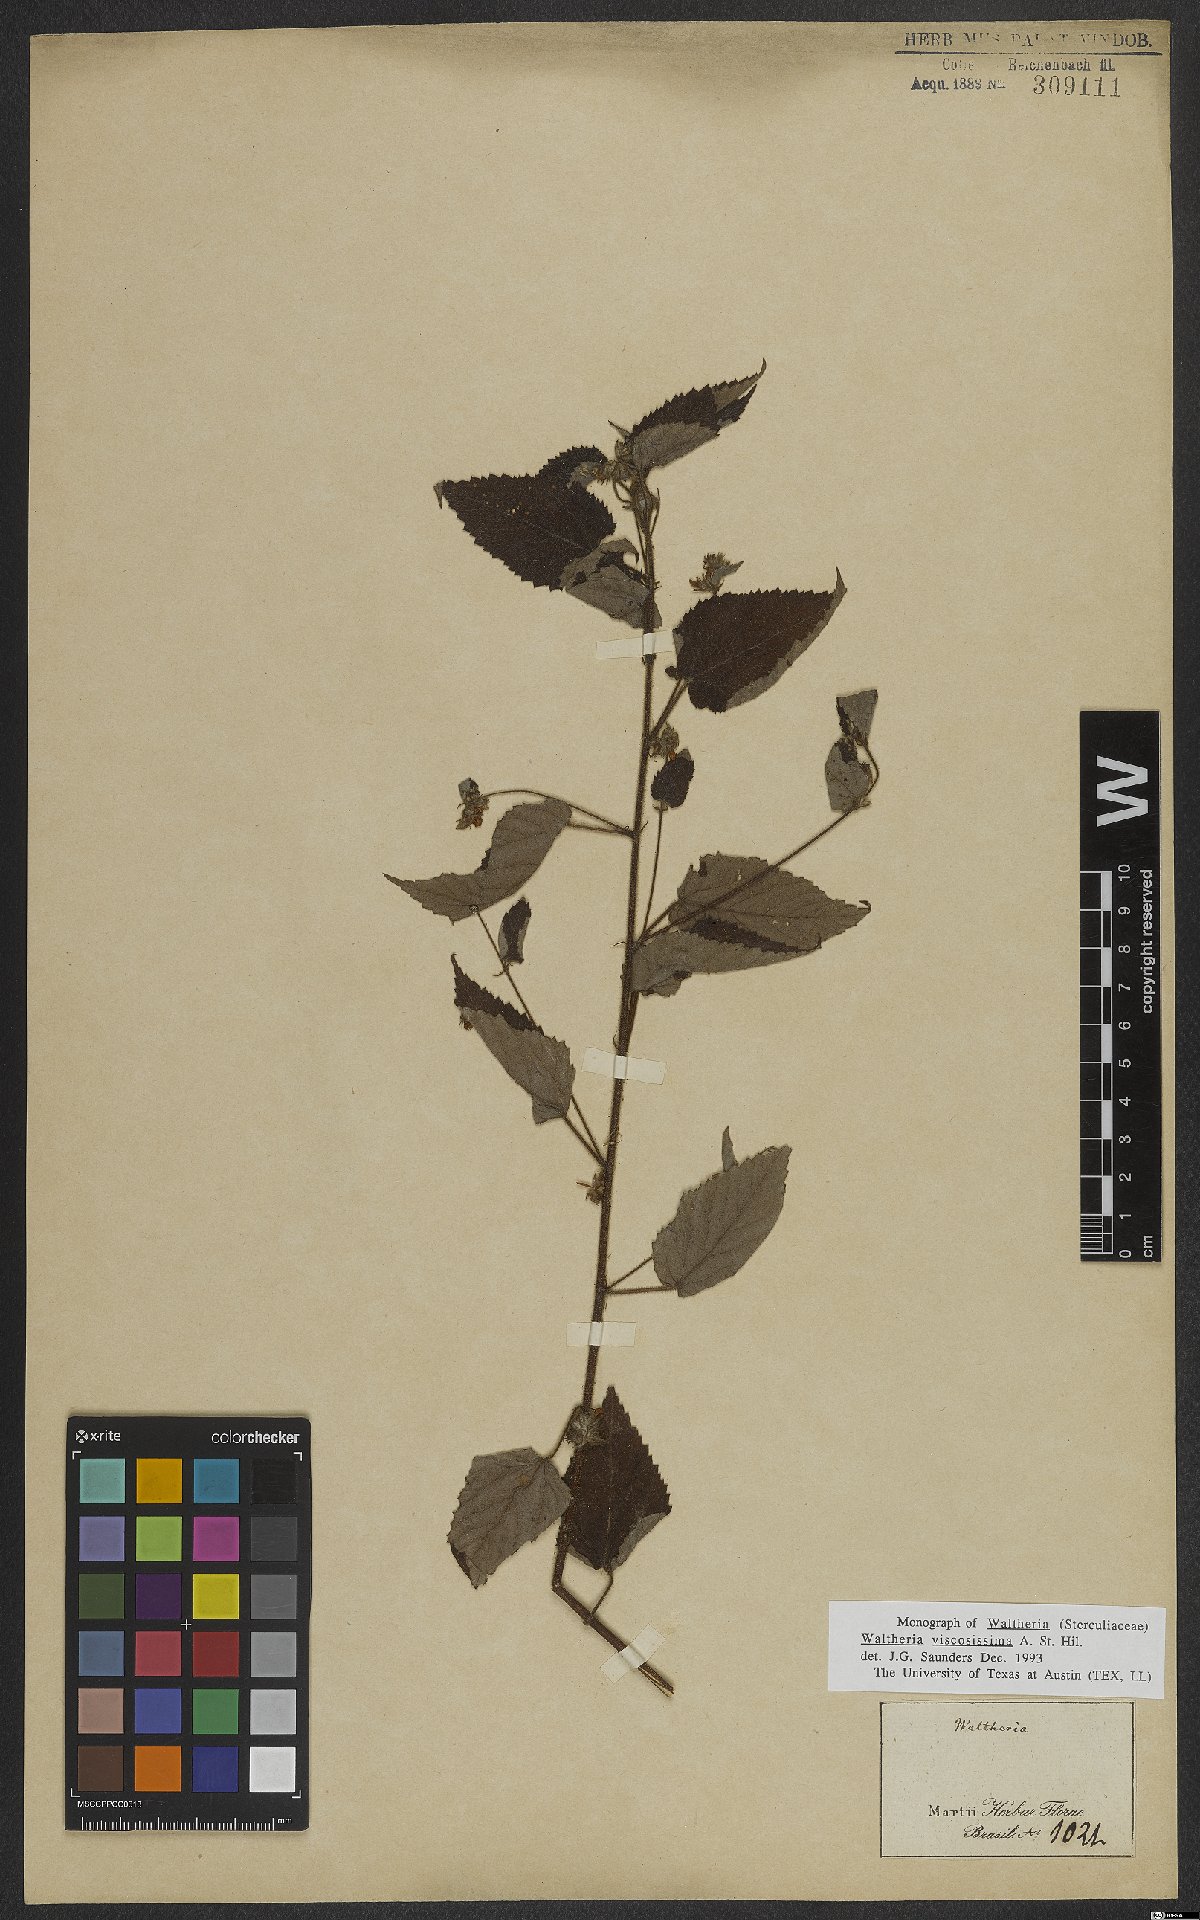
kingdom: Plantae
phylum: Tracheophyta
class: Magnoliopsida
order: Malvales
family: Malvaceae
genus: Waltheria
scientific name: Waltheria viscosissima
